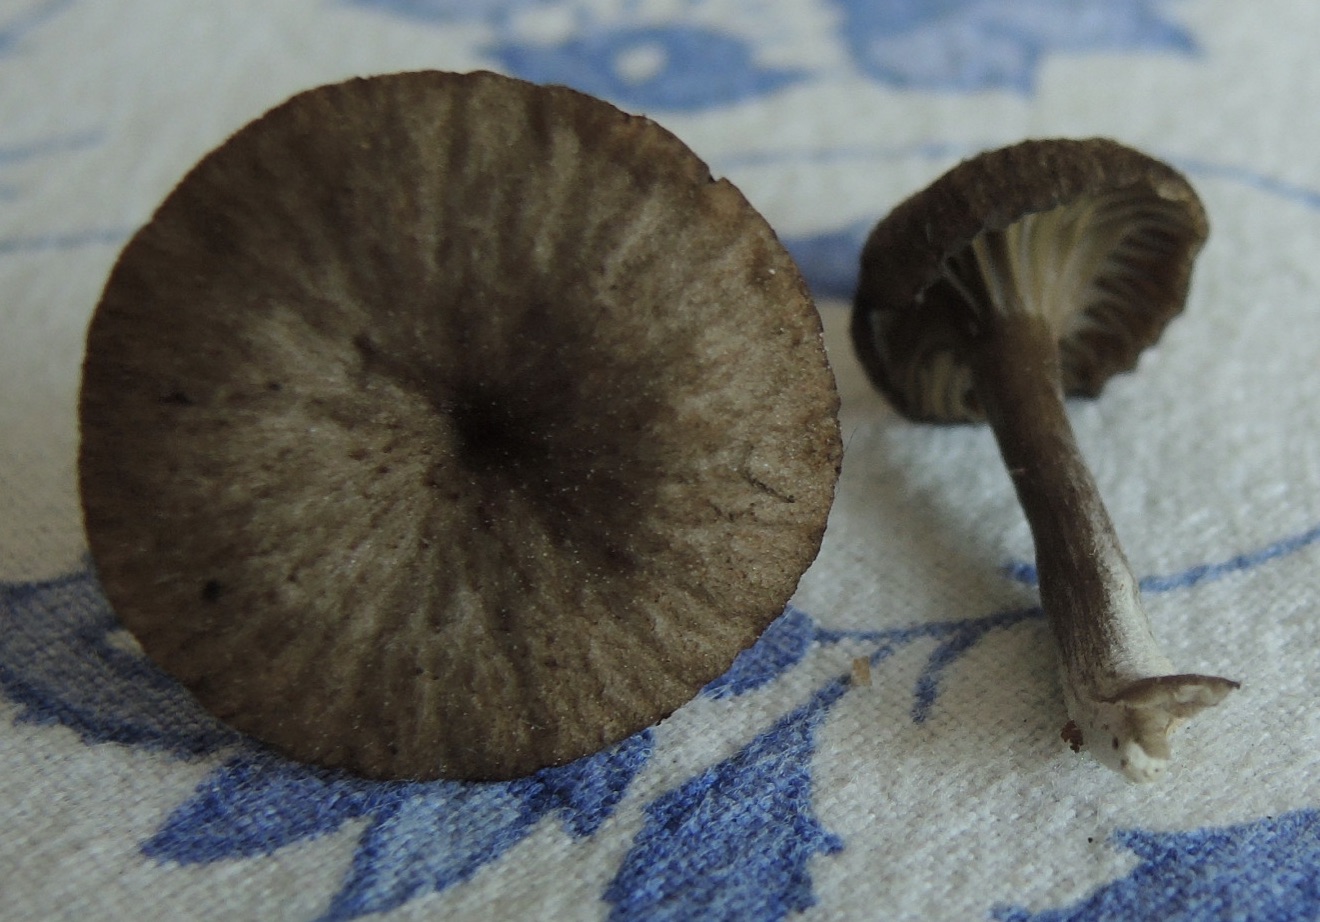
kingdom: Fungi
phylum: Basidiomycota
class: Agaricomycetes
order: Agaricales
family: Hygrophoraceae
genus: Arrhenia
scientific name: Arrhenia gerardiana
